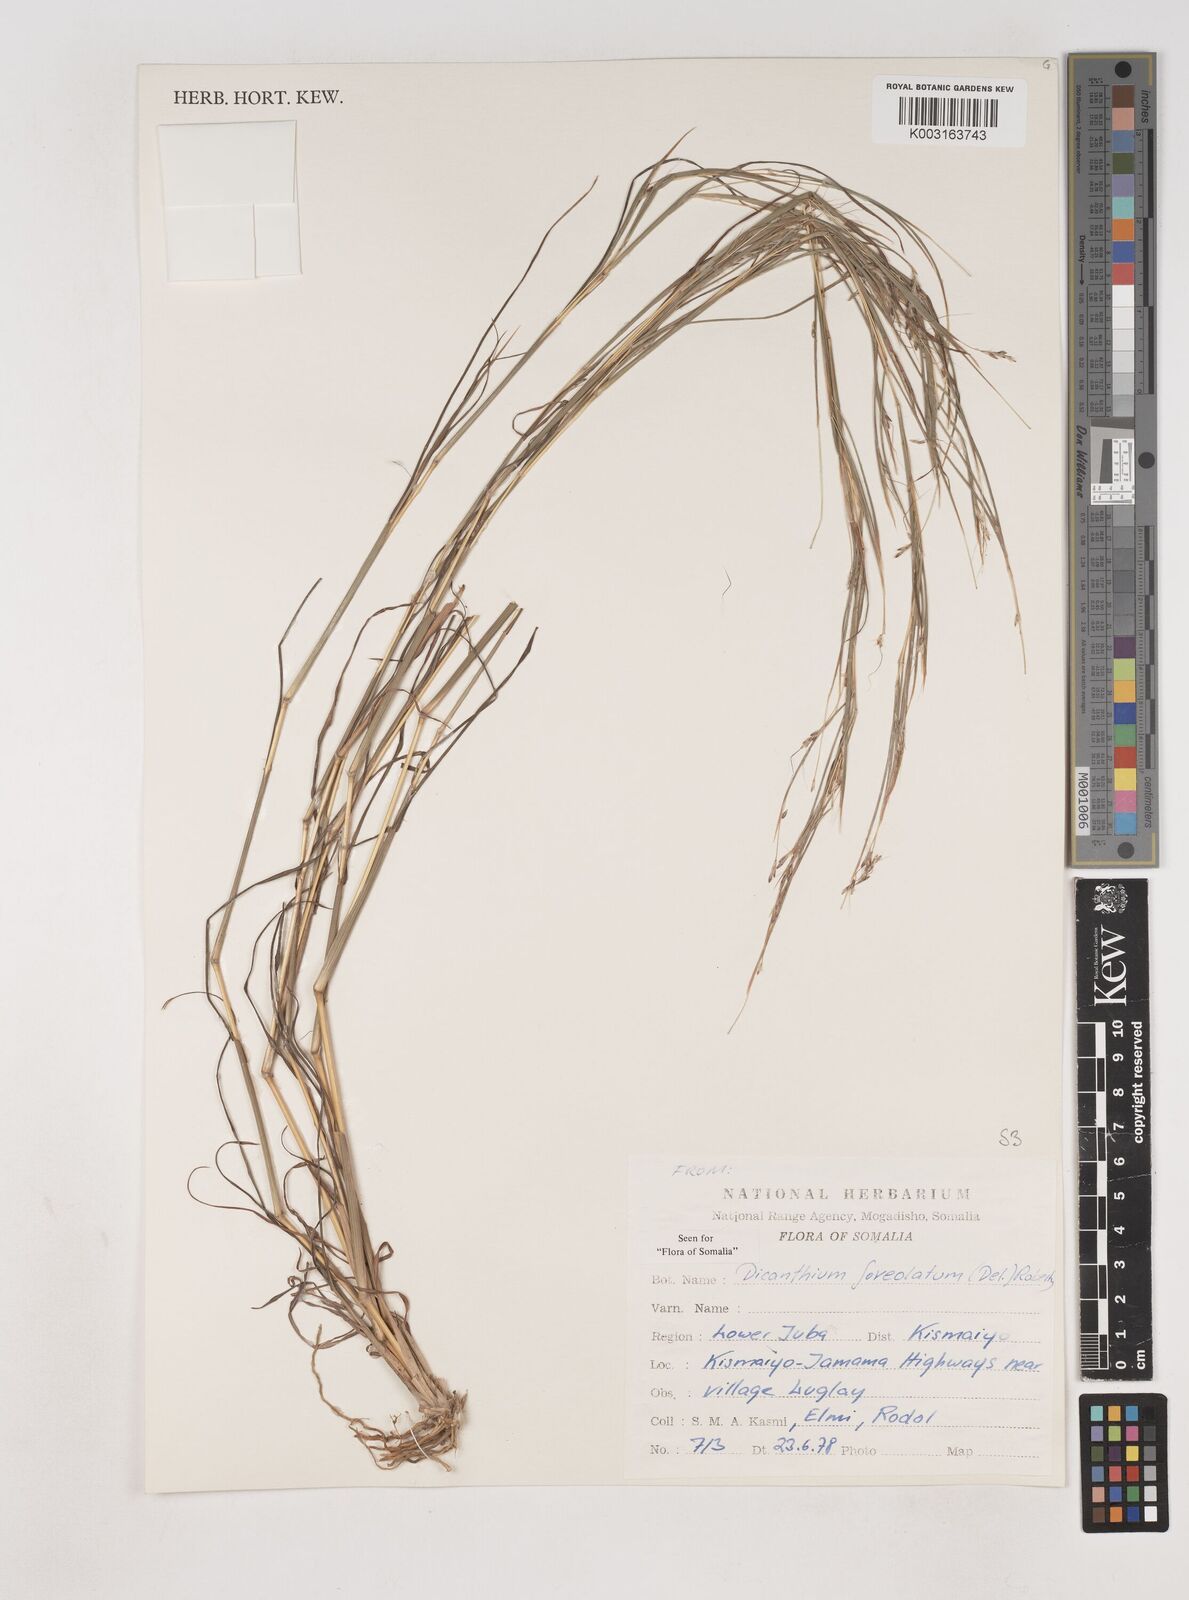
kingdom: Plantae
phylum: Tracheophyta
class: Liliopsida
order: Poales
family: Poaceae
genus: Dichanthium
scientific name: Dichanthium foveolatum
